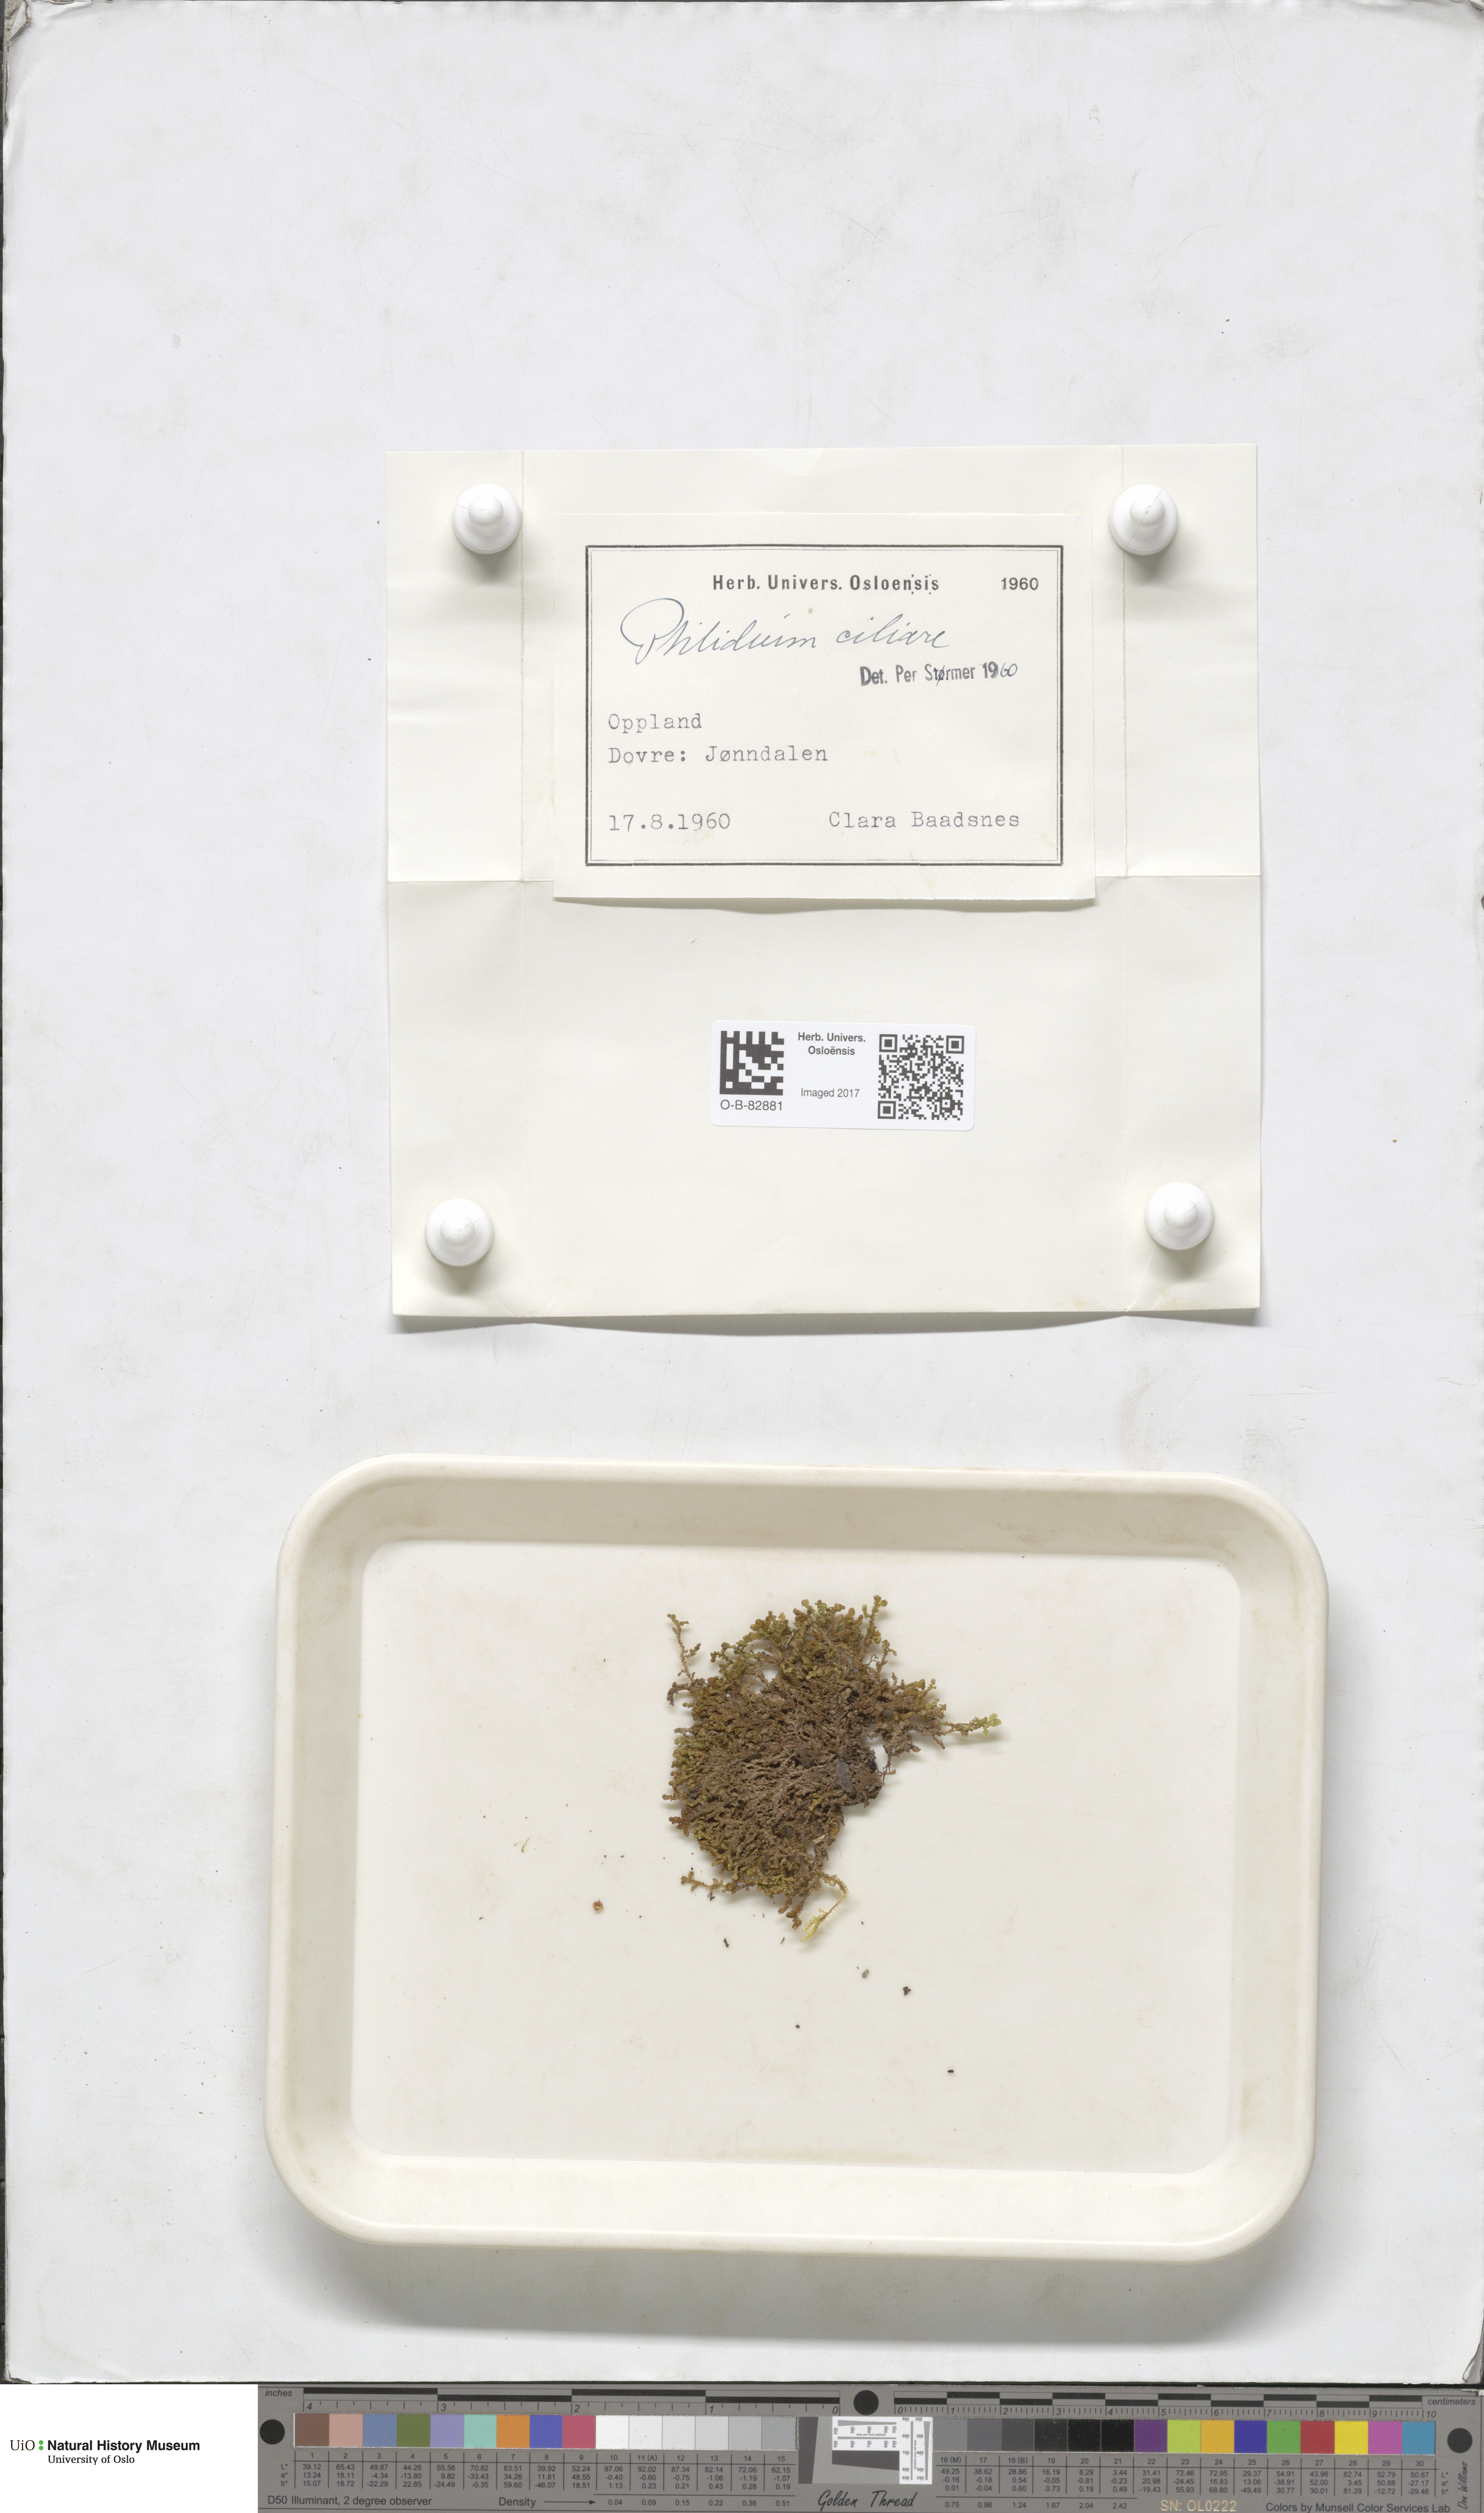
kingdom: Plantae
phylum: Marchantiophyta
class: Jungermanniopsida
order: Ptilidiales
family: Ptilidiaceae
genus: Ptilidium
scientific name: Ptilidium ciliare
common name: Ciliate fringewort
